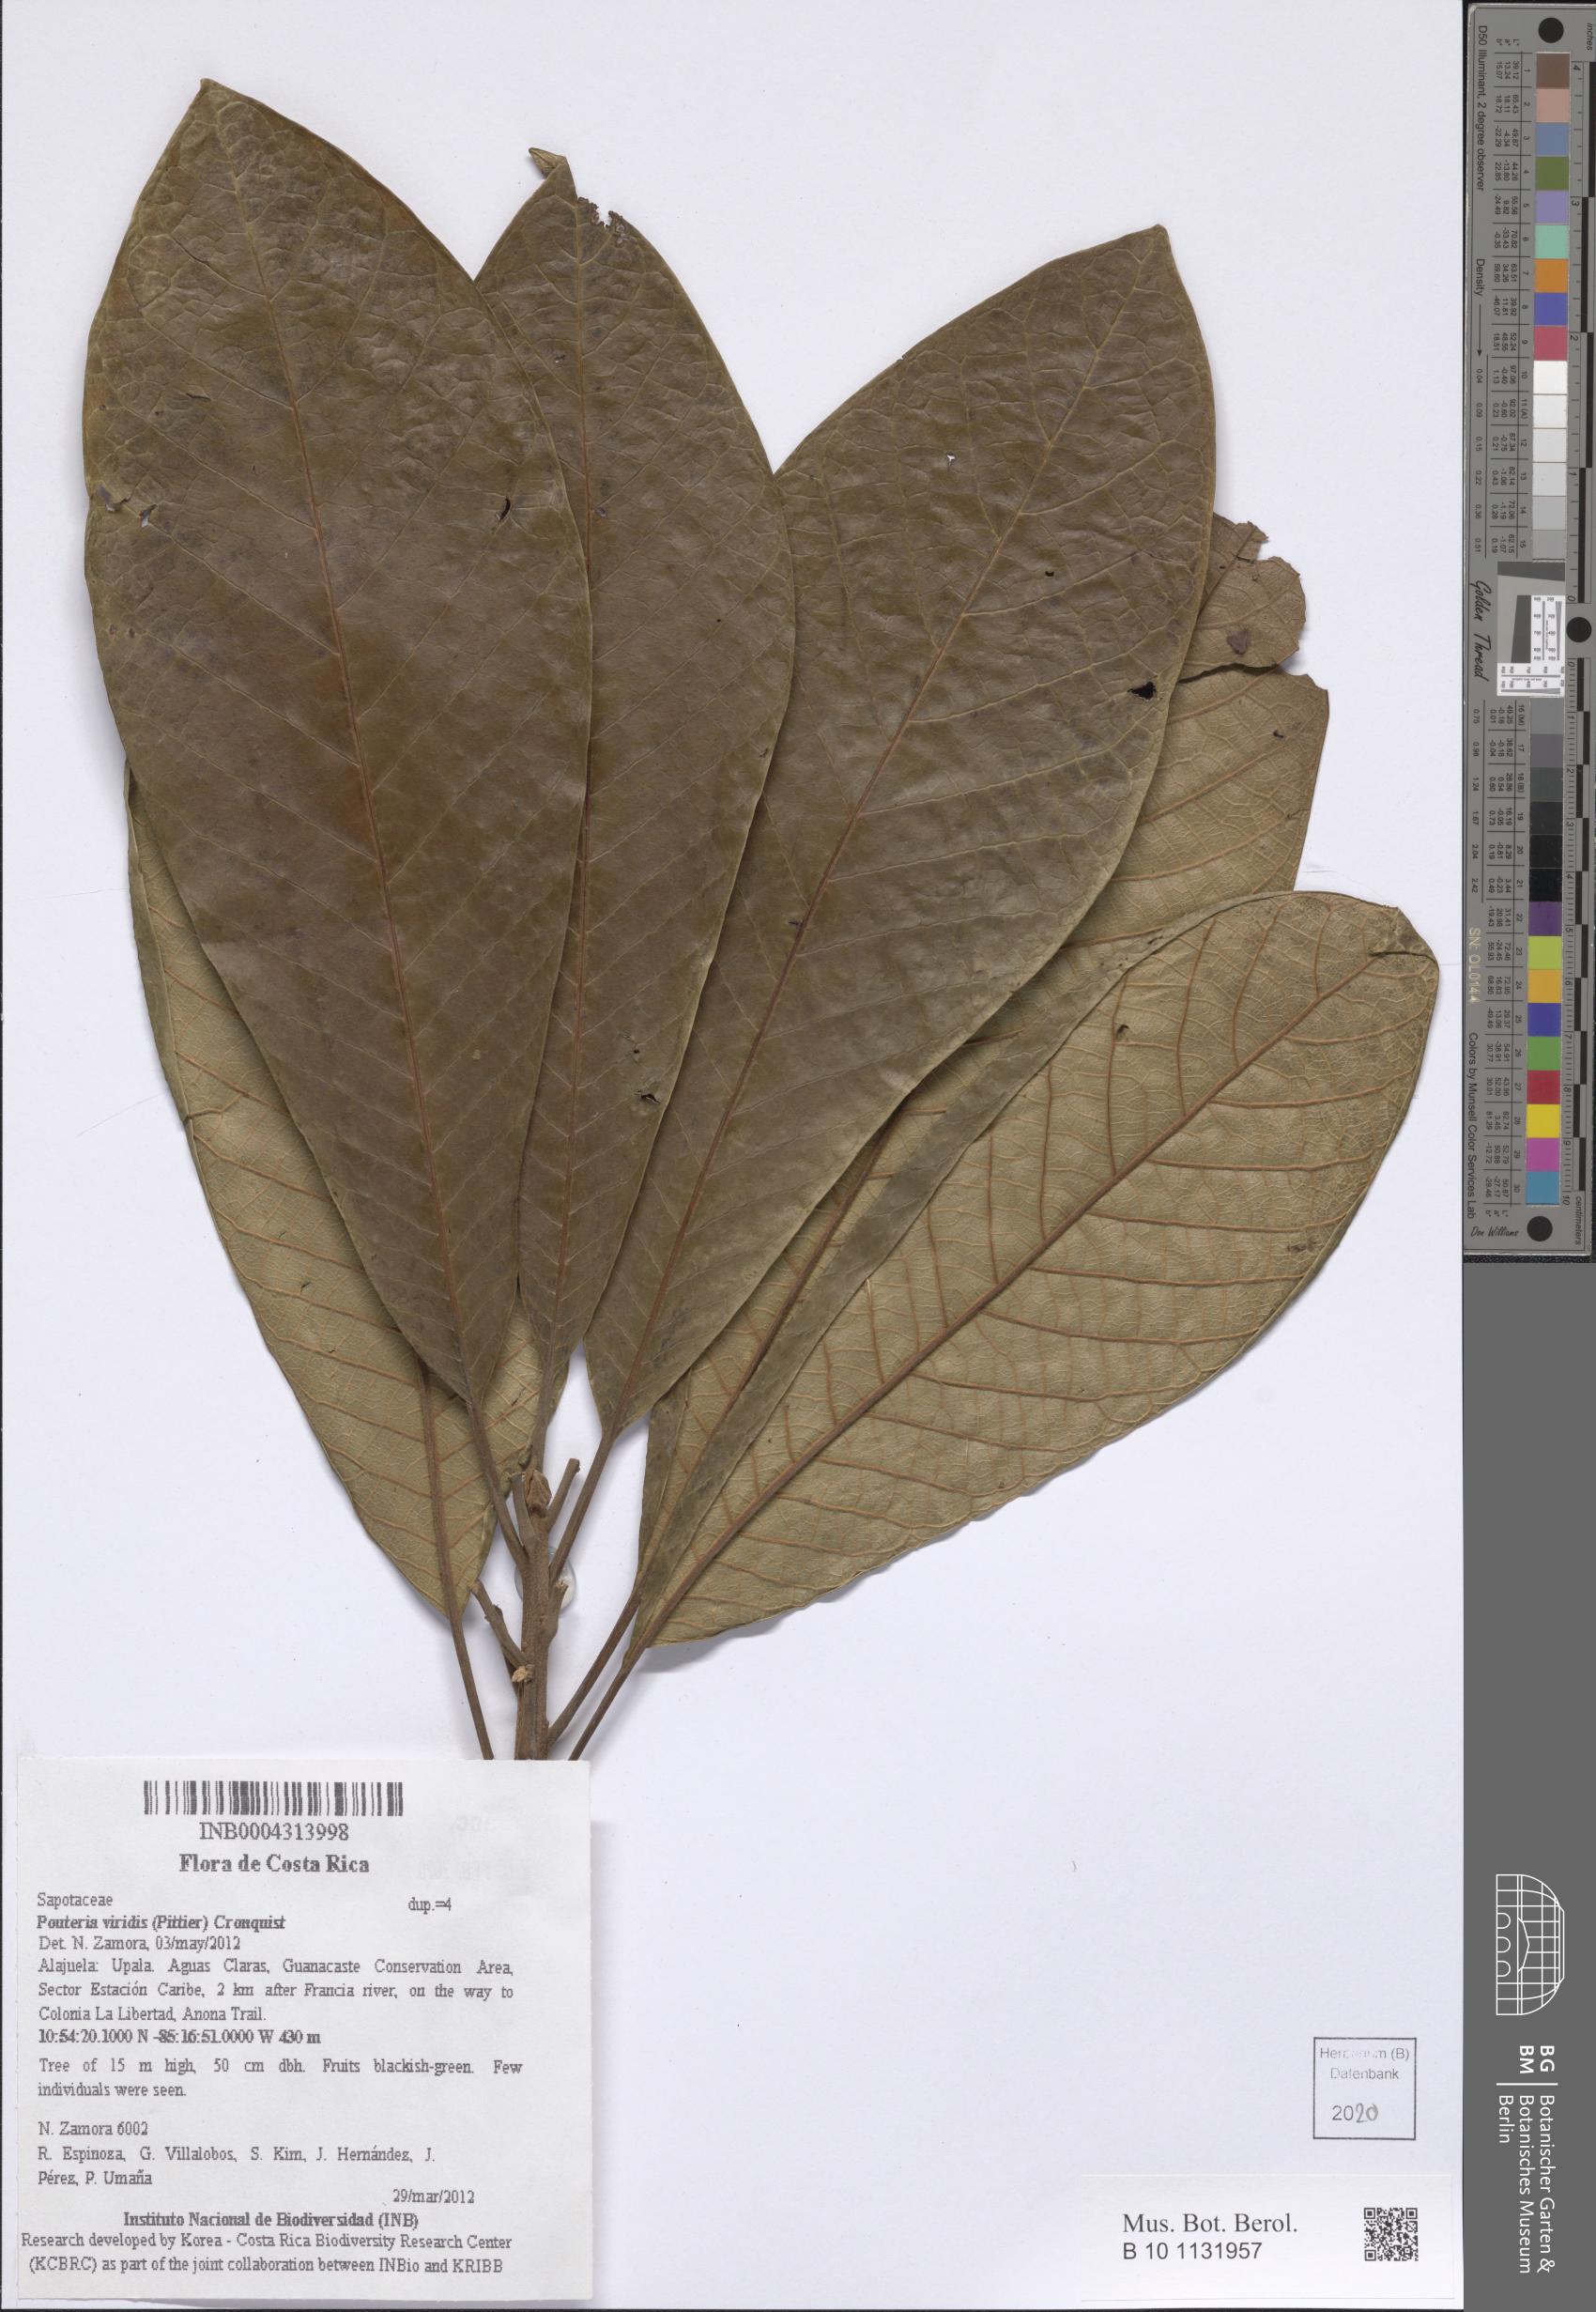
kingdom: Plantae
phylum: Tracheophyta
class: Magnoliopsida
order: Ericales
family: Sapotaceae
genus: Pouteria
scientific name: Pouteria viridis
